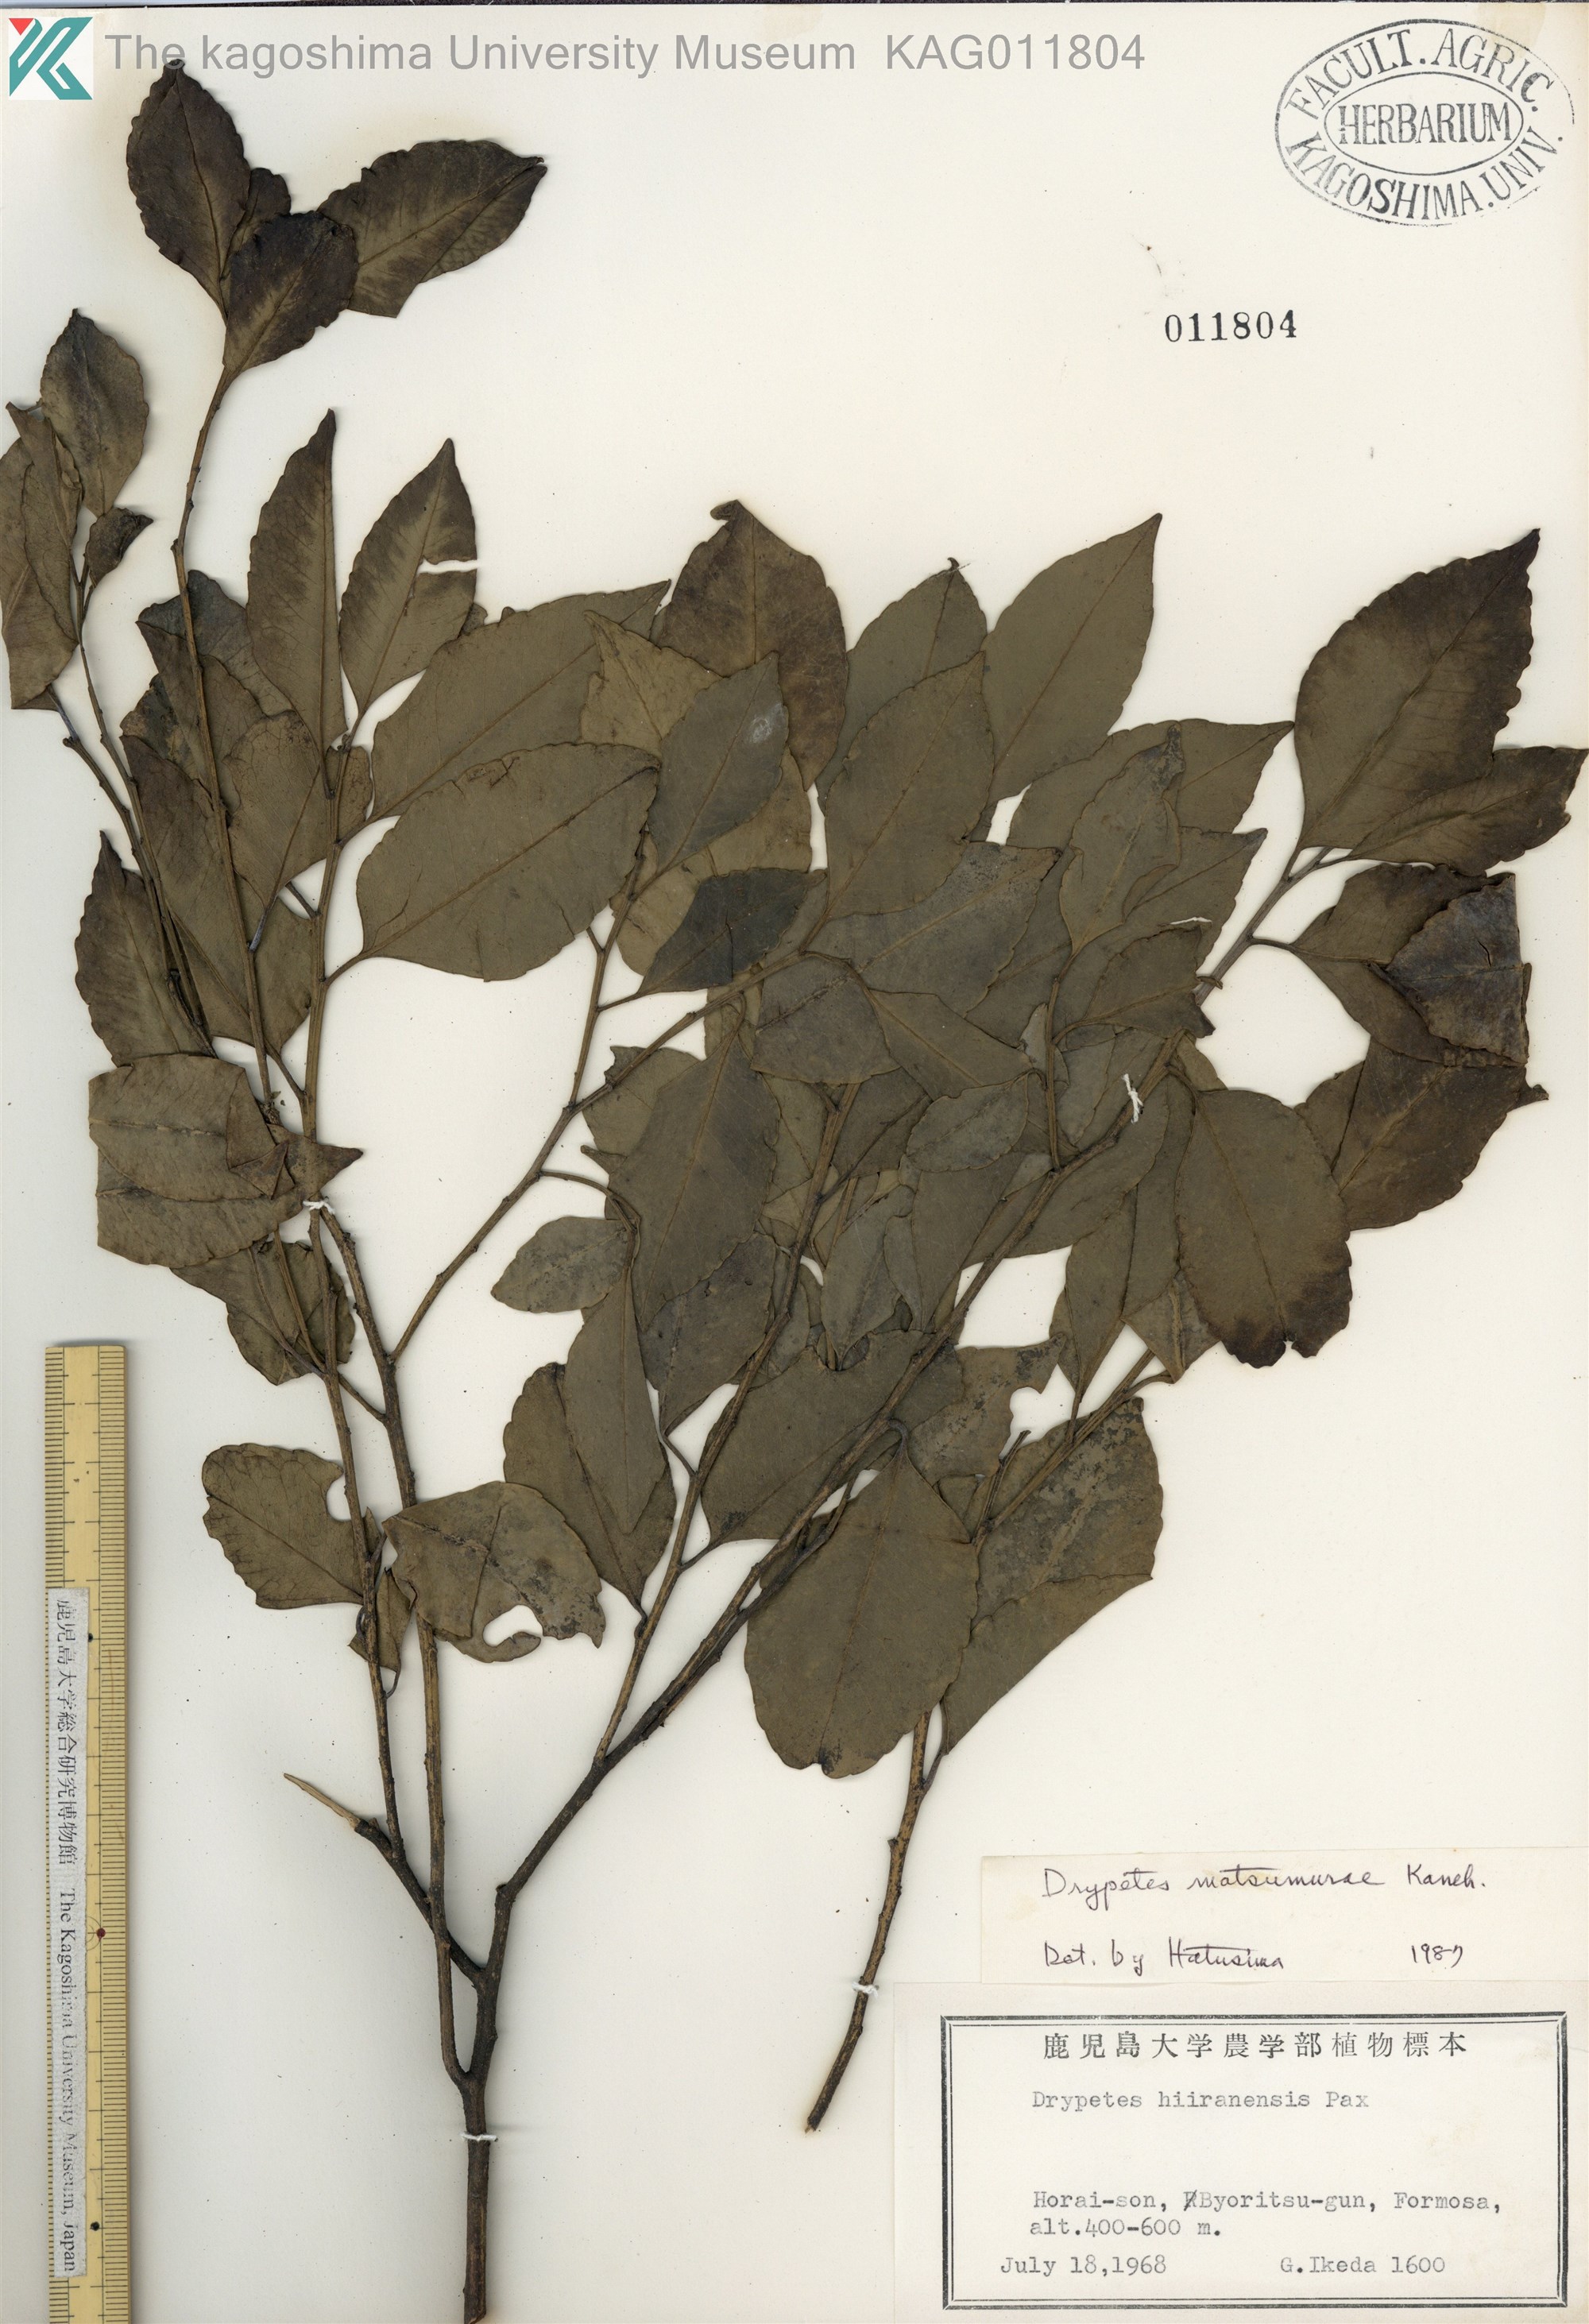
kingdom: Plantae
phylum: Tracheophyta
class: Magnoliopsida
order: Malpighiales
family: Putranjivaceae
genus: Putranjiva
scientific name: Putranjiva matsumurae
